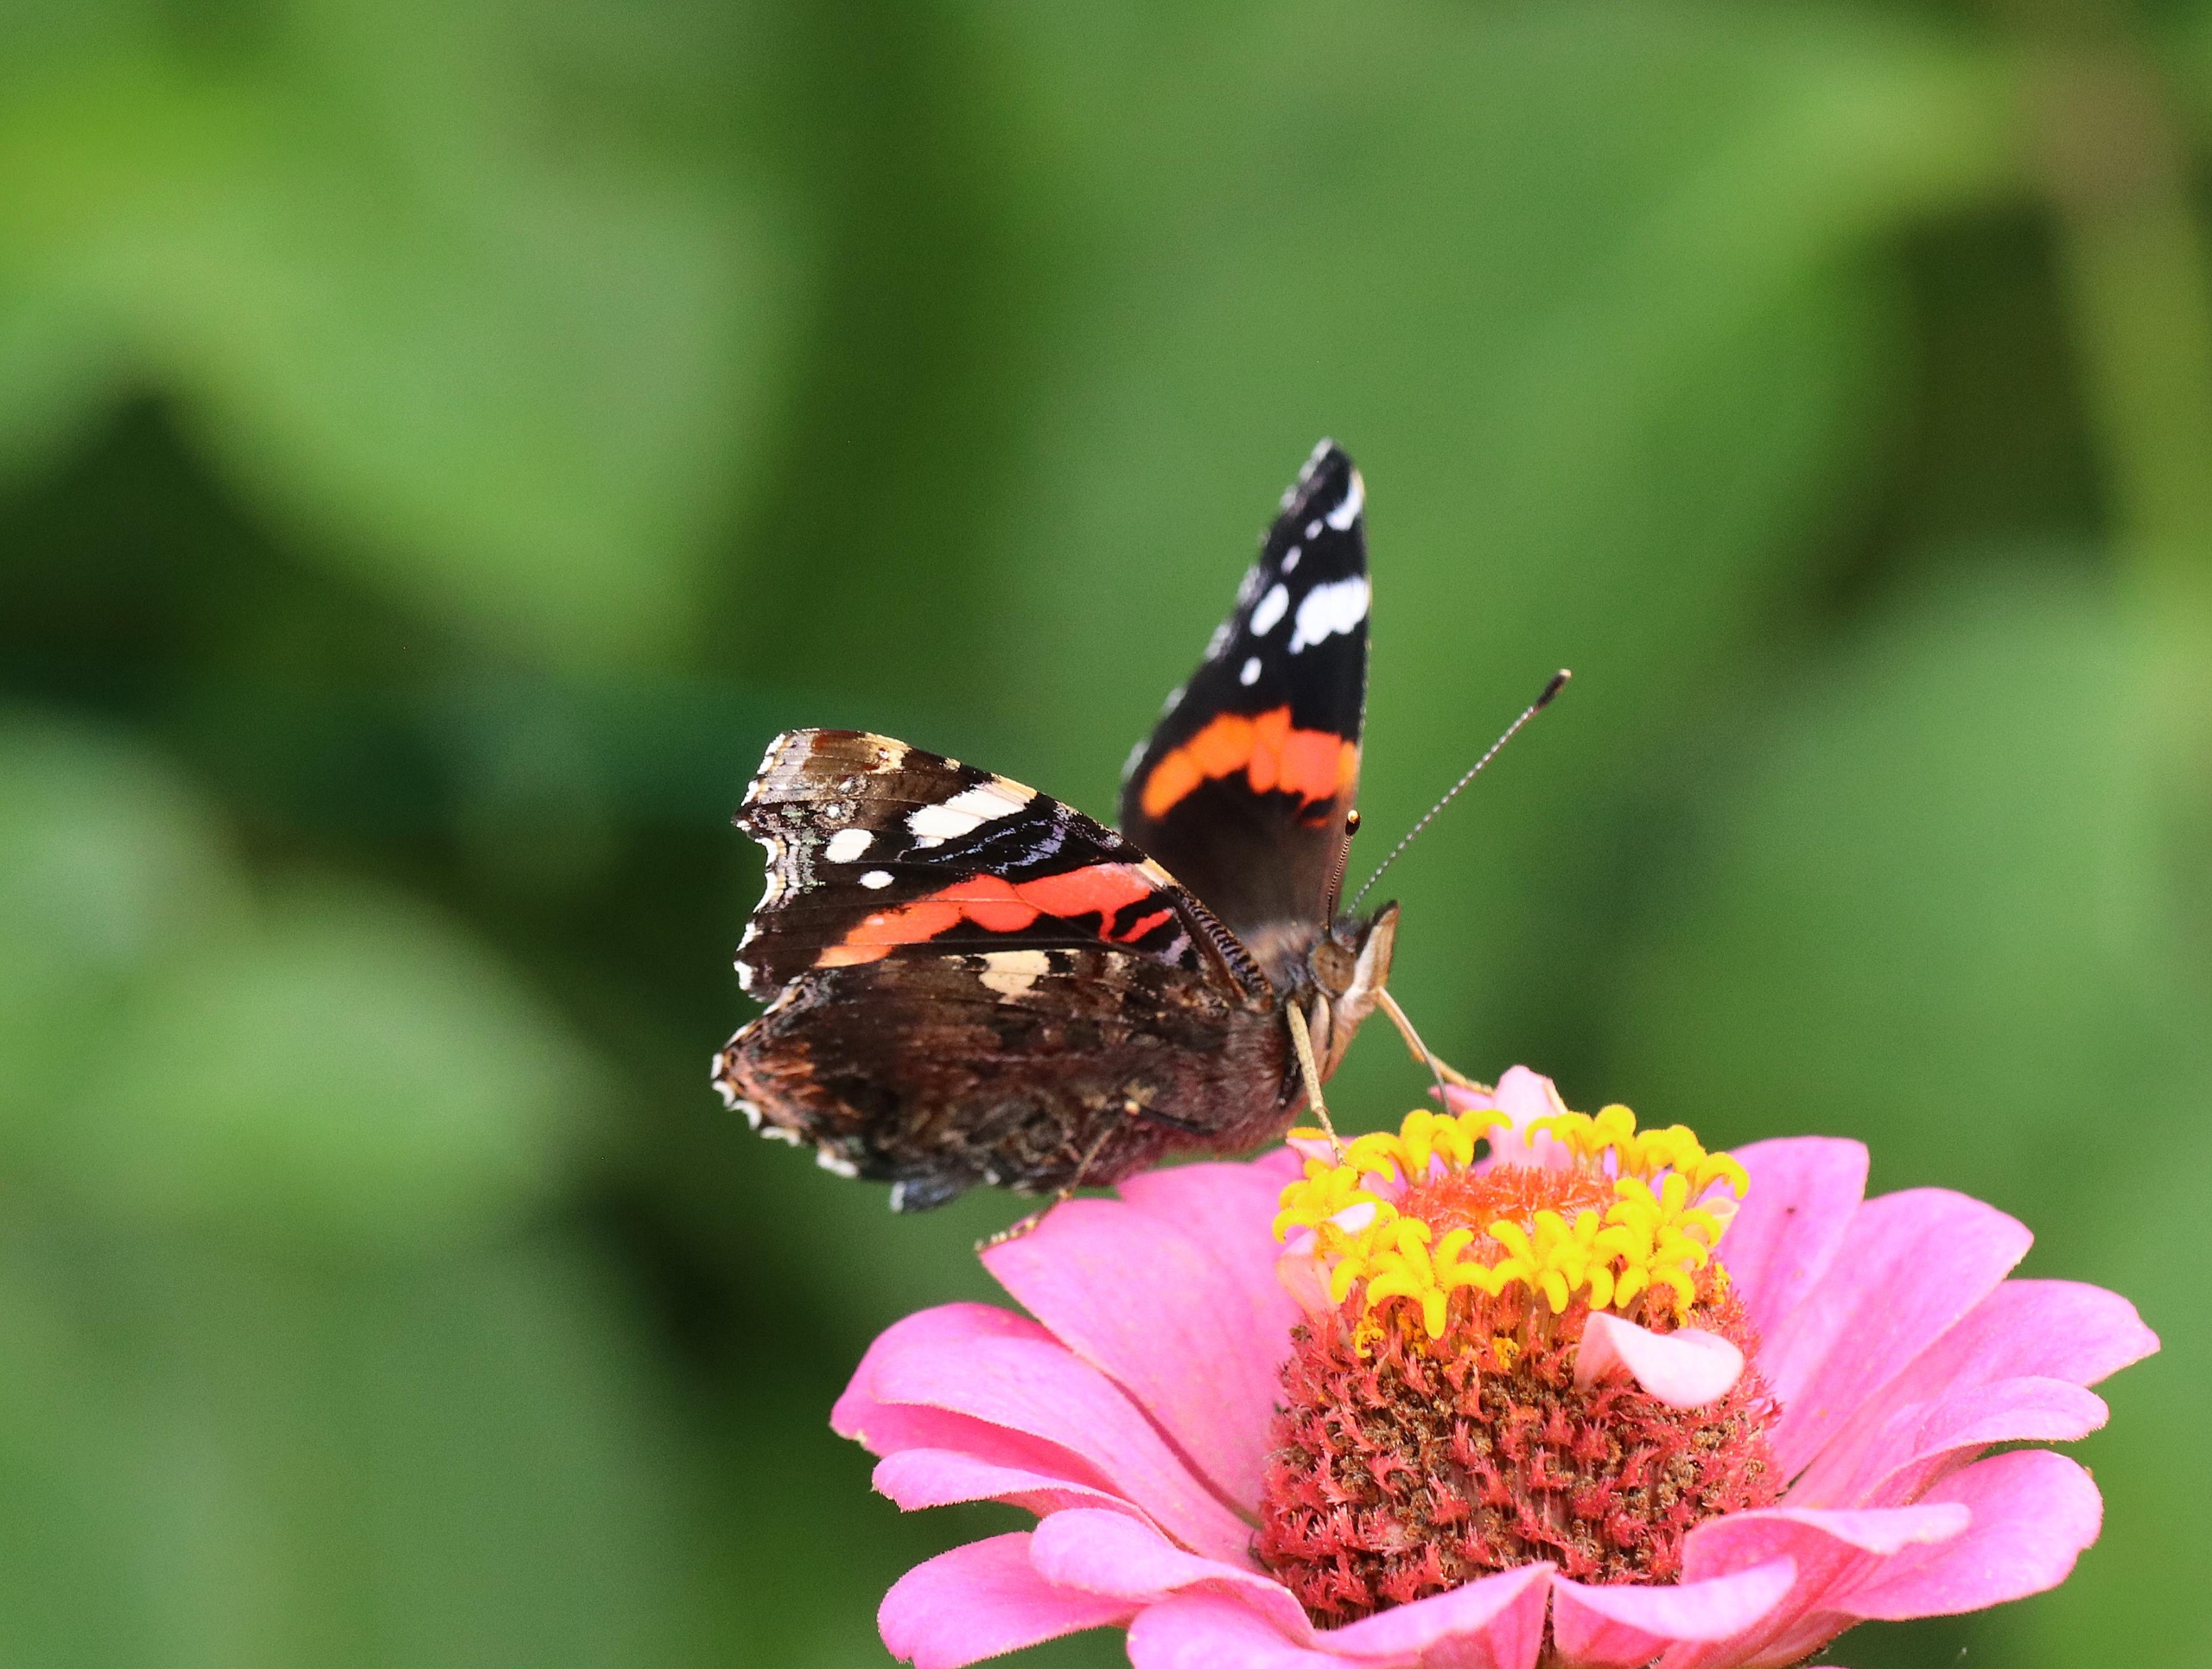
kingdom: Animalia
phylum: Arthropoda
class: Insecta
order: Lepidoptera
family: Nymphalidae
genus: Vanessa
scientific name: Vanessa atalanta
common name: Admiral
